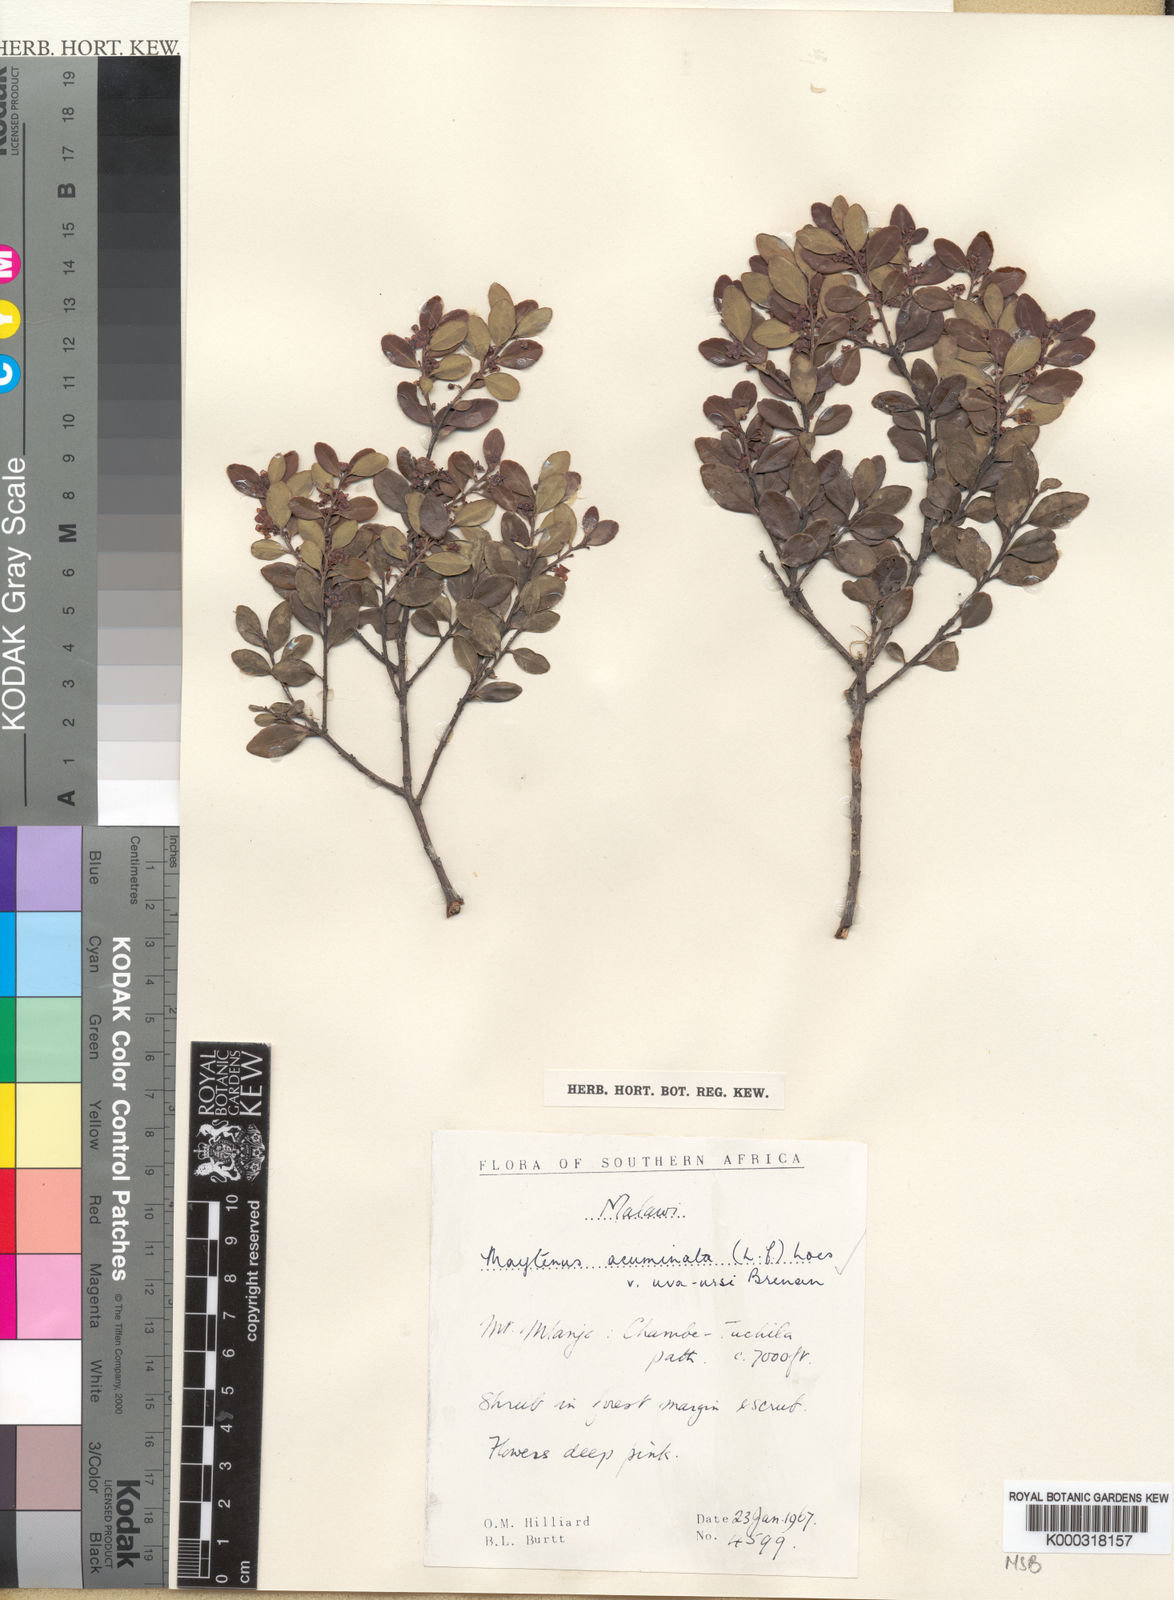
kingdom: Plantae
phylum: Tracheophyta
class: Magnoliopsida
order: Celastrales
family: Celastraceae
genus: Maytenus
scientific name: Maytenus
